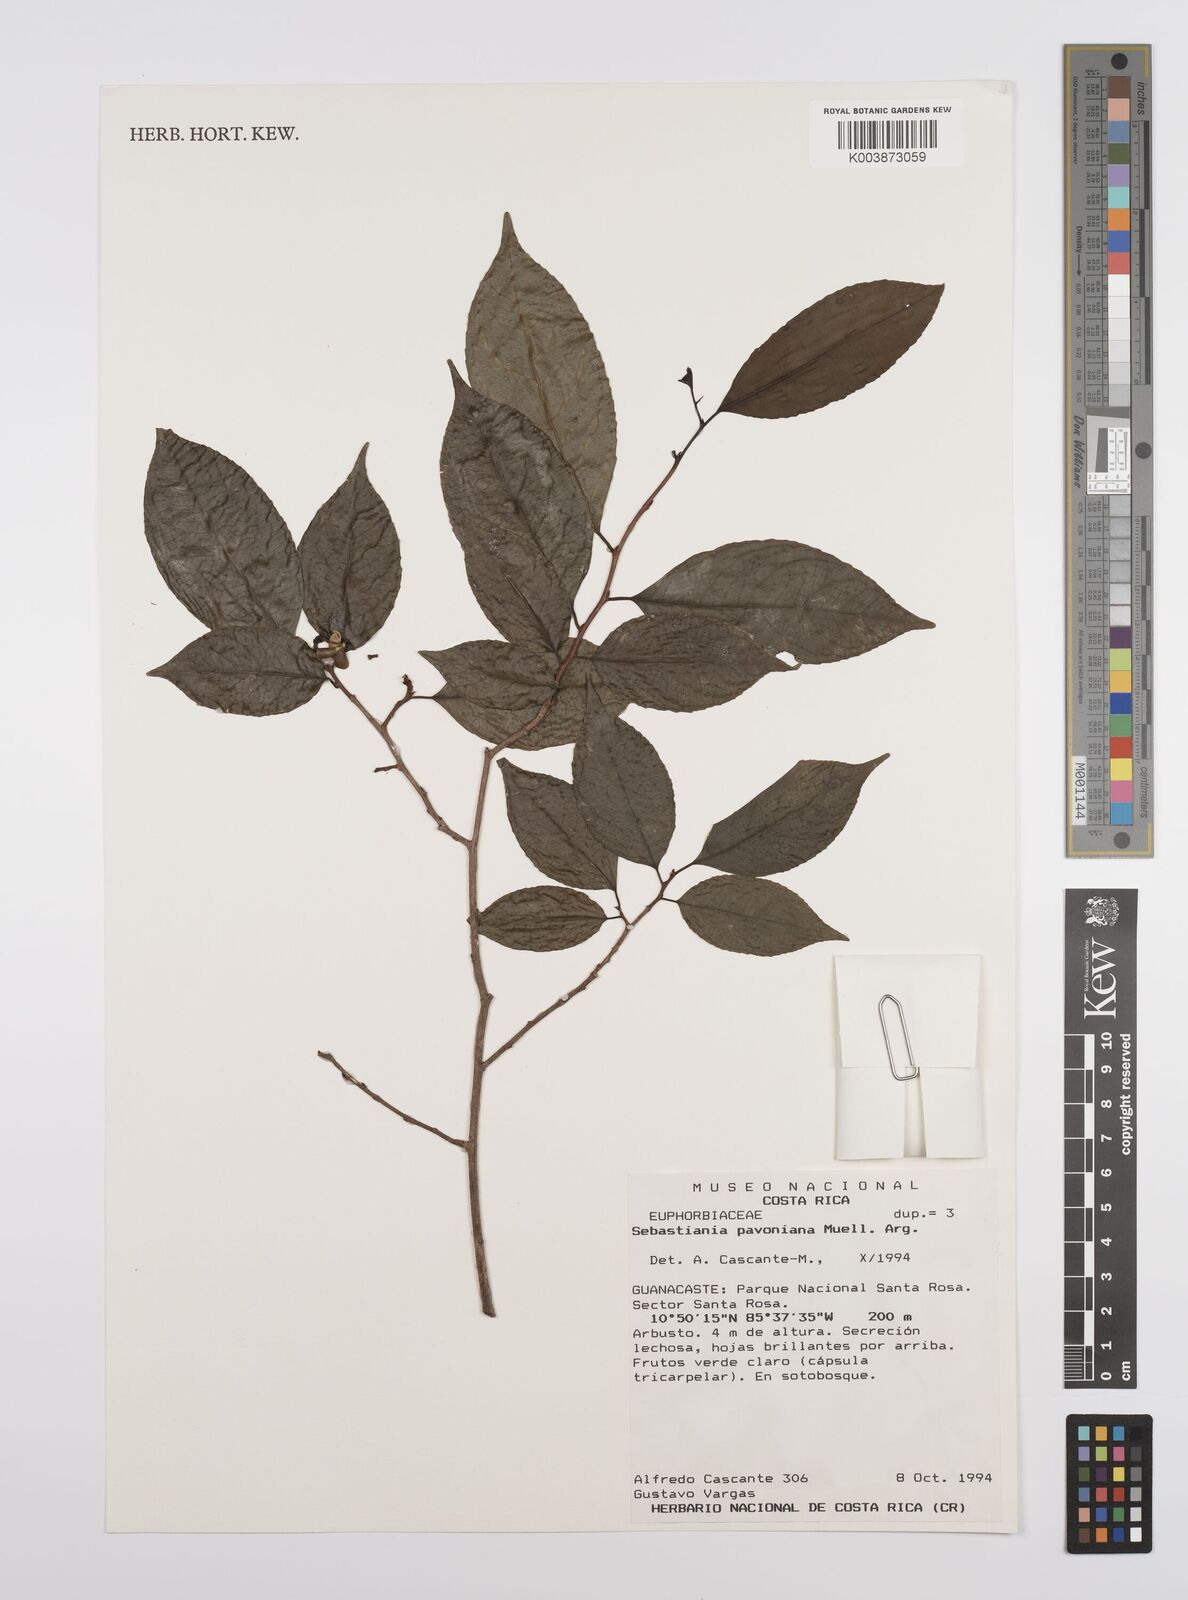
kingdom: Plantae
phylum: Tracheophyta
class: Magnoliopsida
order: Malpighiales
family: Euphorbiaceae
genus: Sebastiania
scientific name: Sebastiania pavoniana
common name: Mexican jumping-beans
